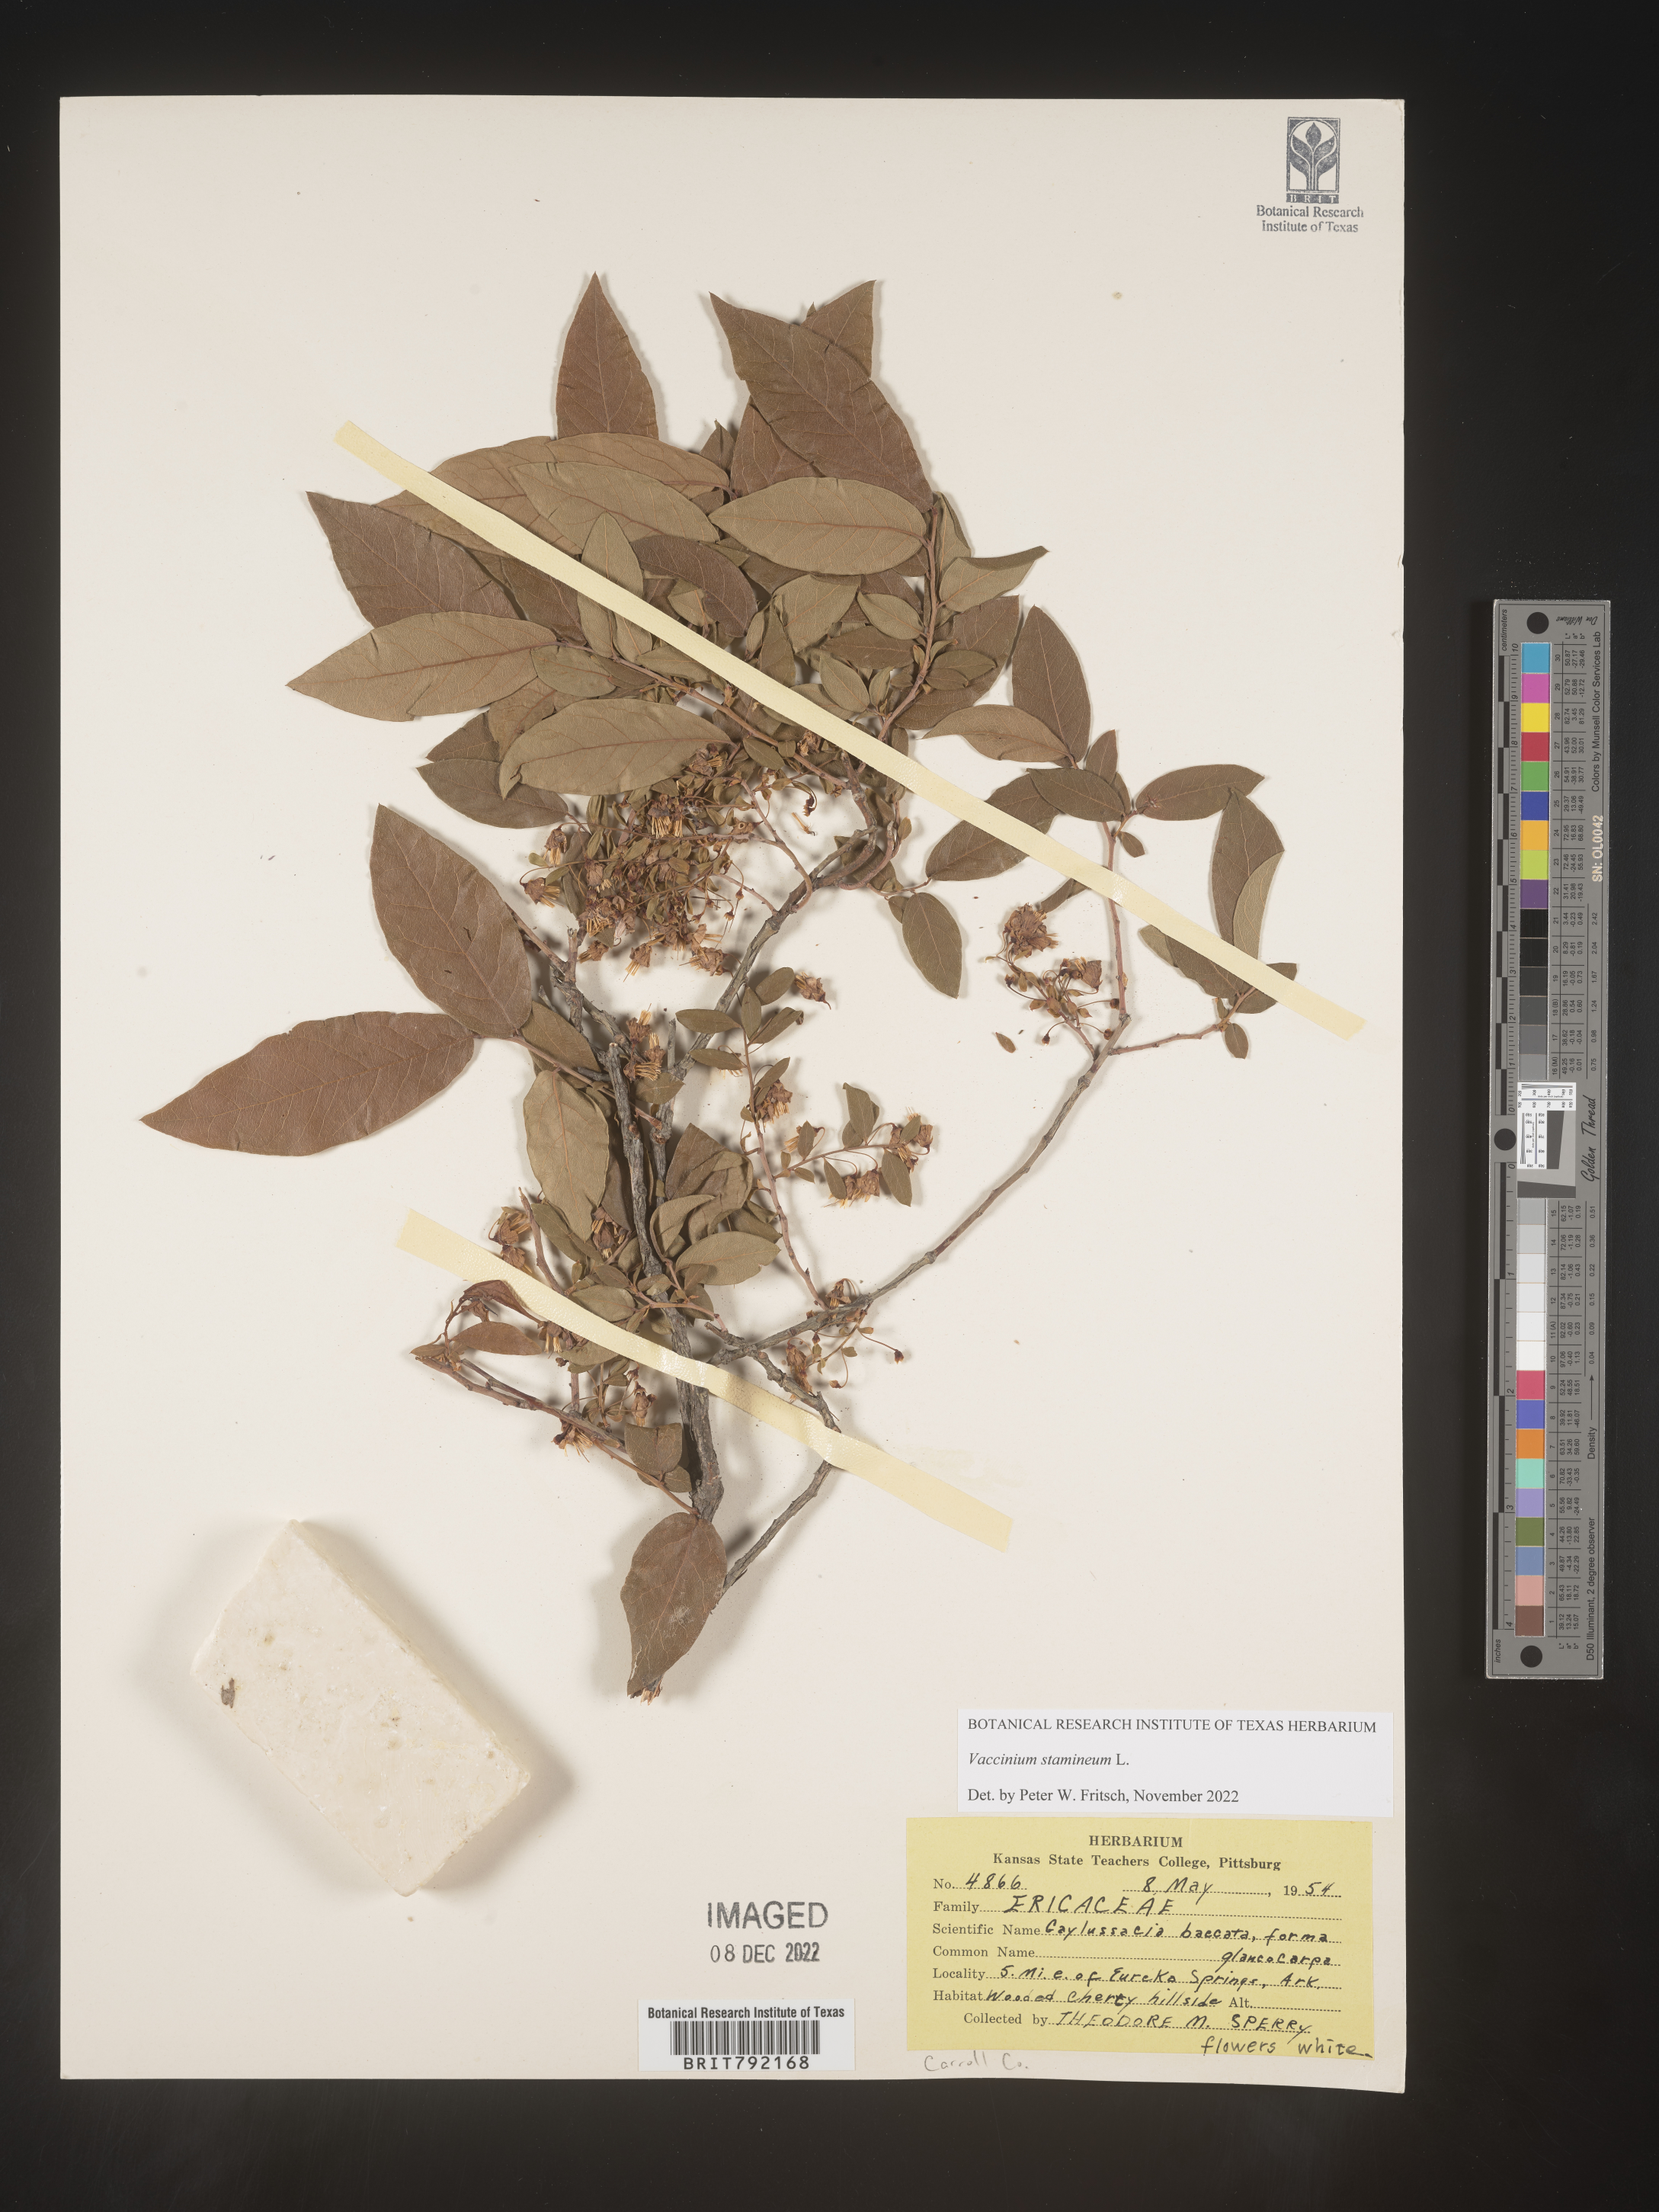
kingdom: Plantae
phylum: Tracheophyta
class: Magnoliopsida
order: Ericales
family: Ericaceae
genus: Vaccinium
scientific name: Vaccinium stamineum
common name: Deerberry
